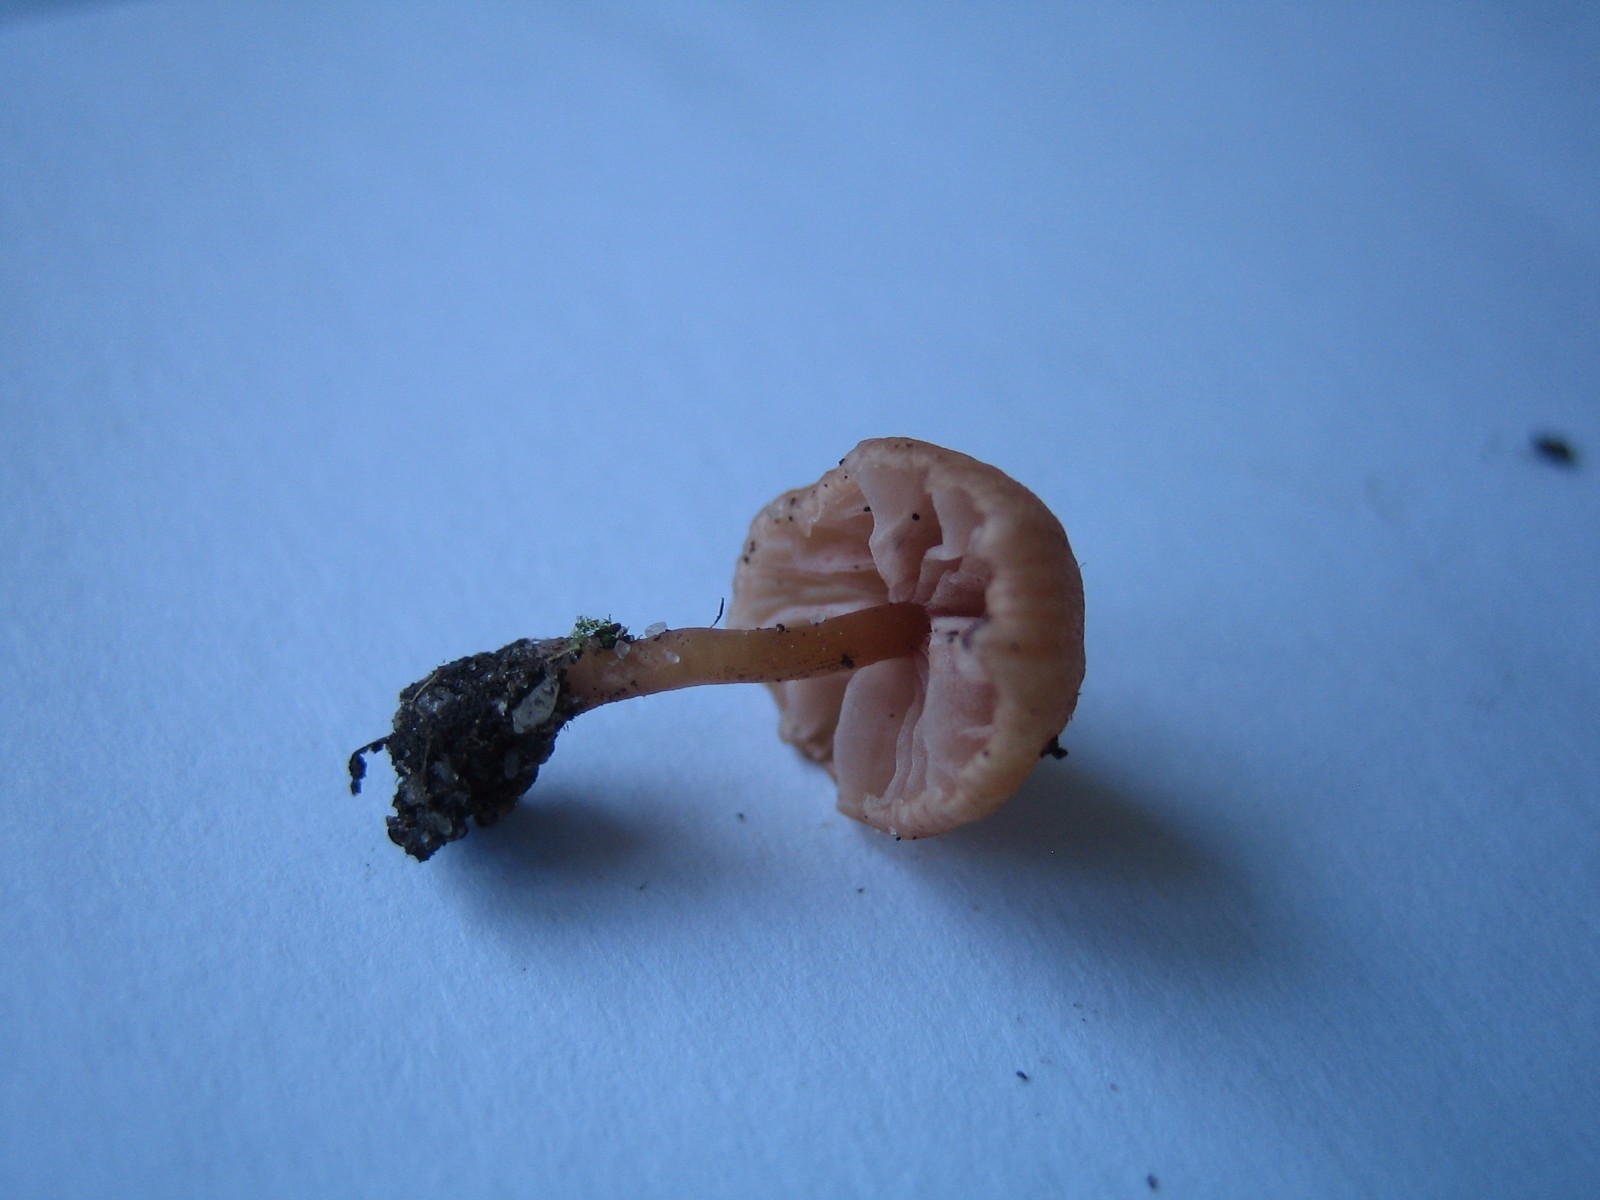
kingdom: Fungi
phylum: Basidiomycota
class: Agaricomycetes
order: Agaricales
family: Hydnangiaceae
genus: Laccaria
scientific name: Laccaria tortilis
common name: krybende ametysthat
